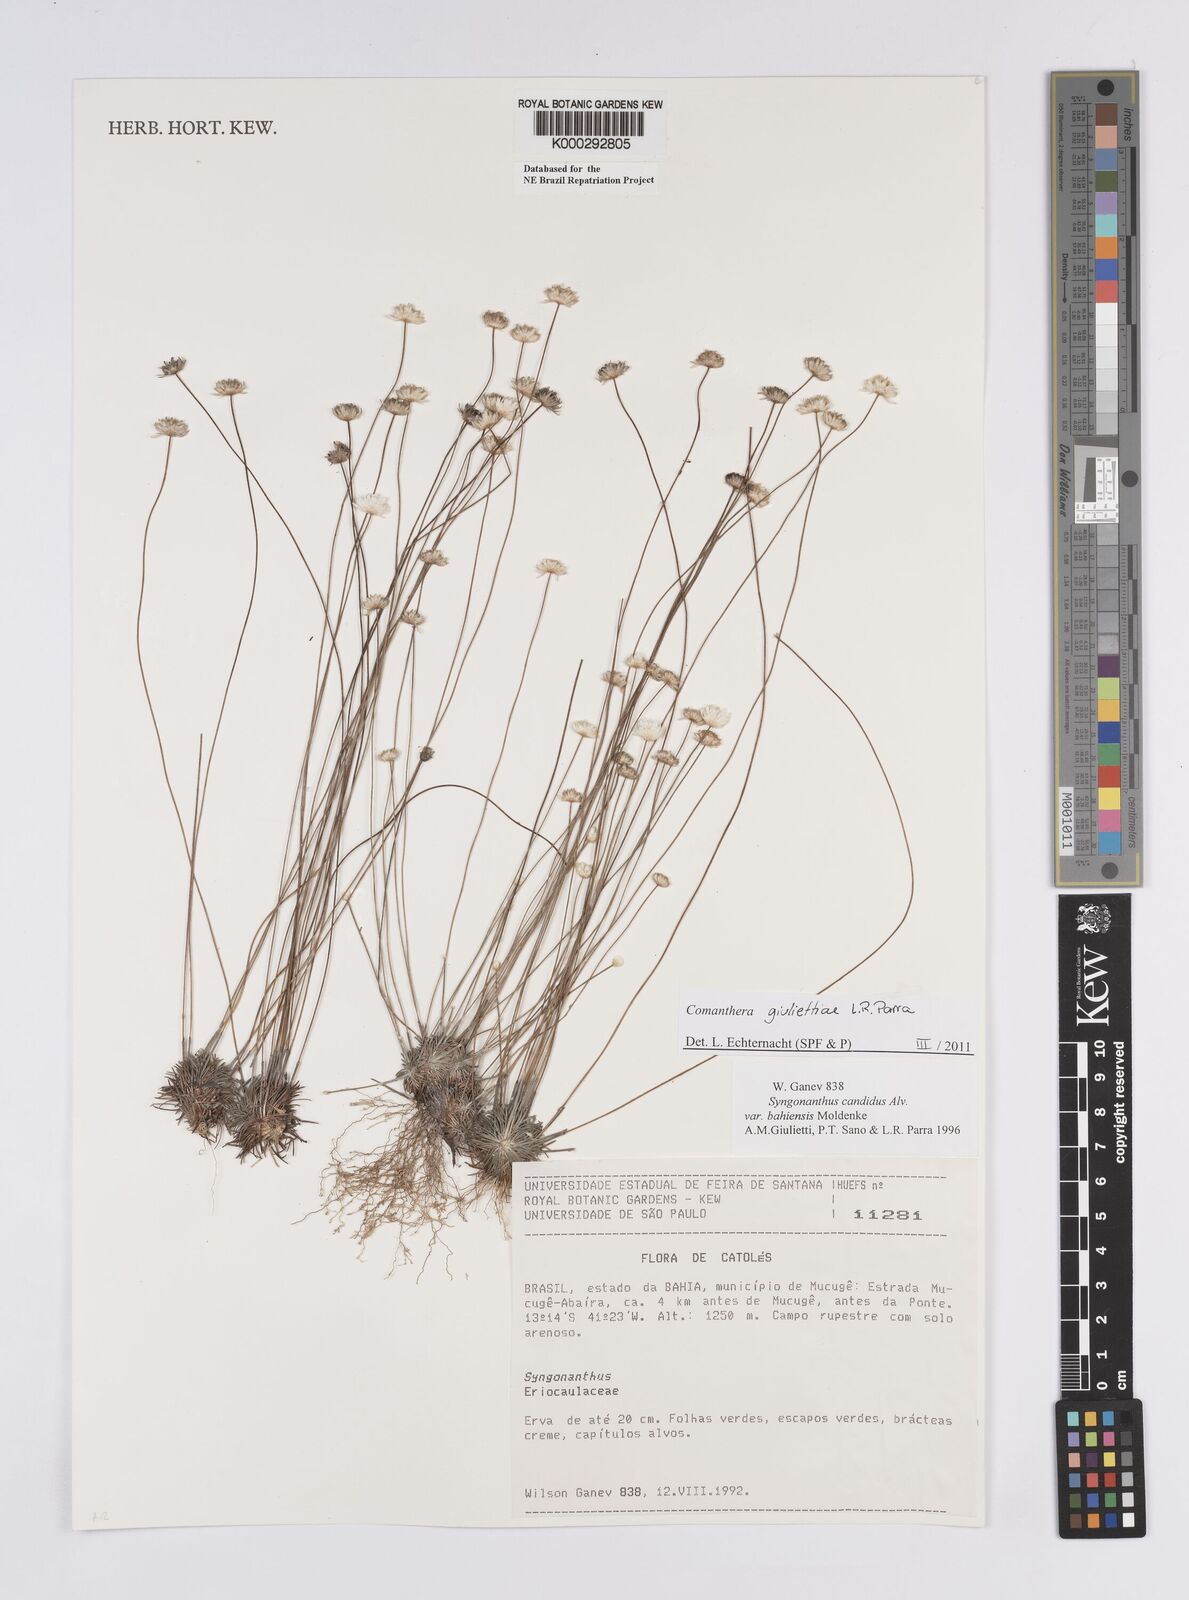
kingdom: Plantae
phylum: Tracheophyta
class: Liliopsida
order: Poales
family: Eriocaulaceae
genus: Comanthera
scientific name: Comanthera giuliettiae
